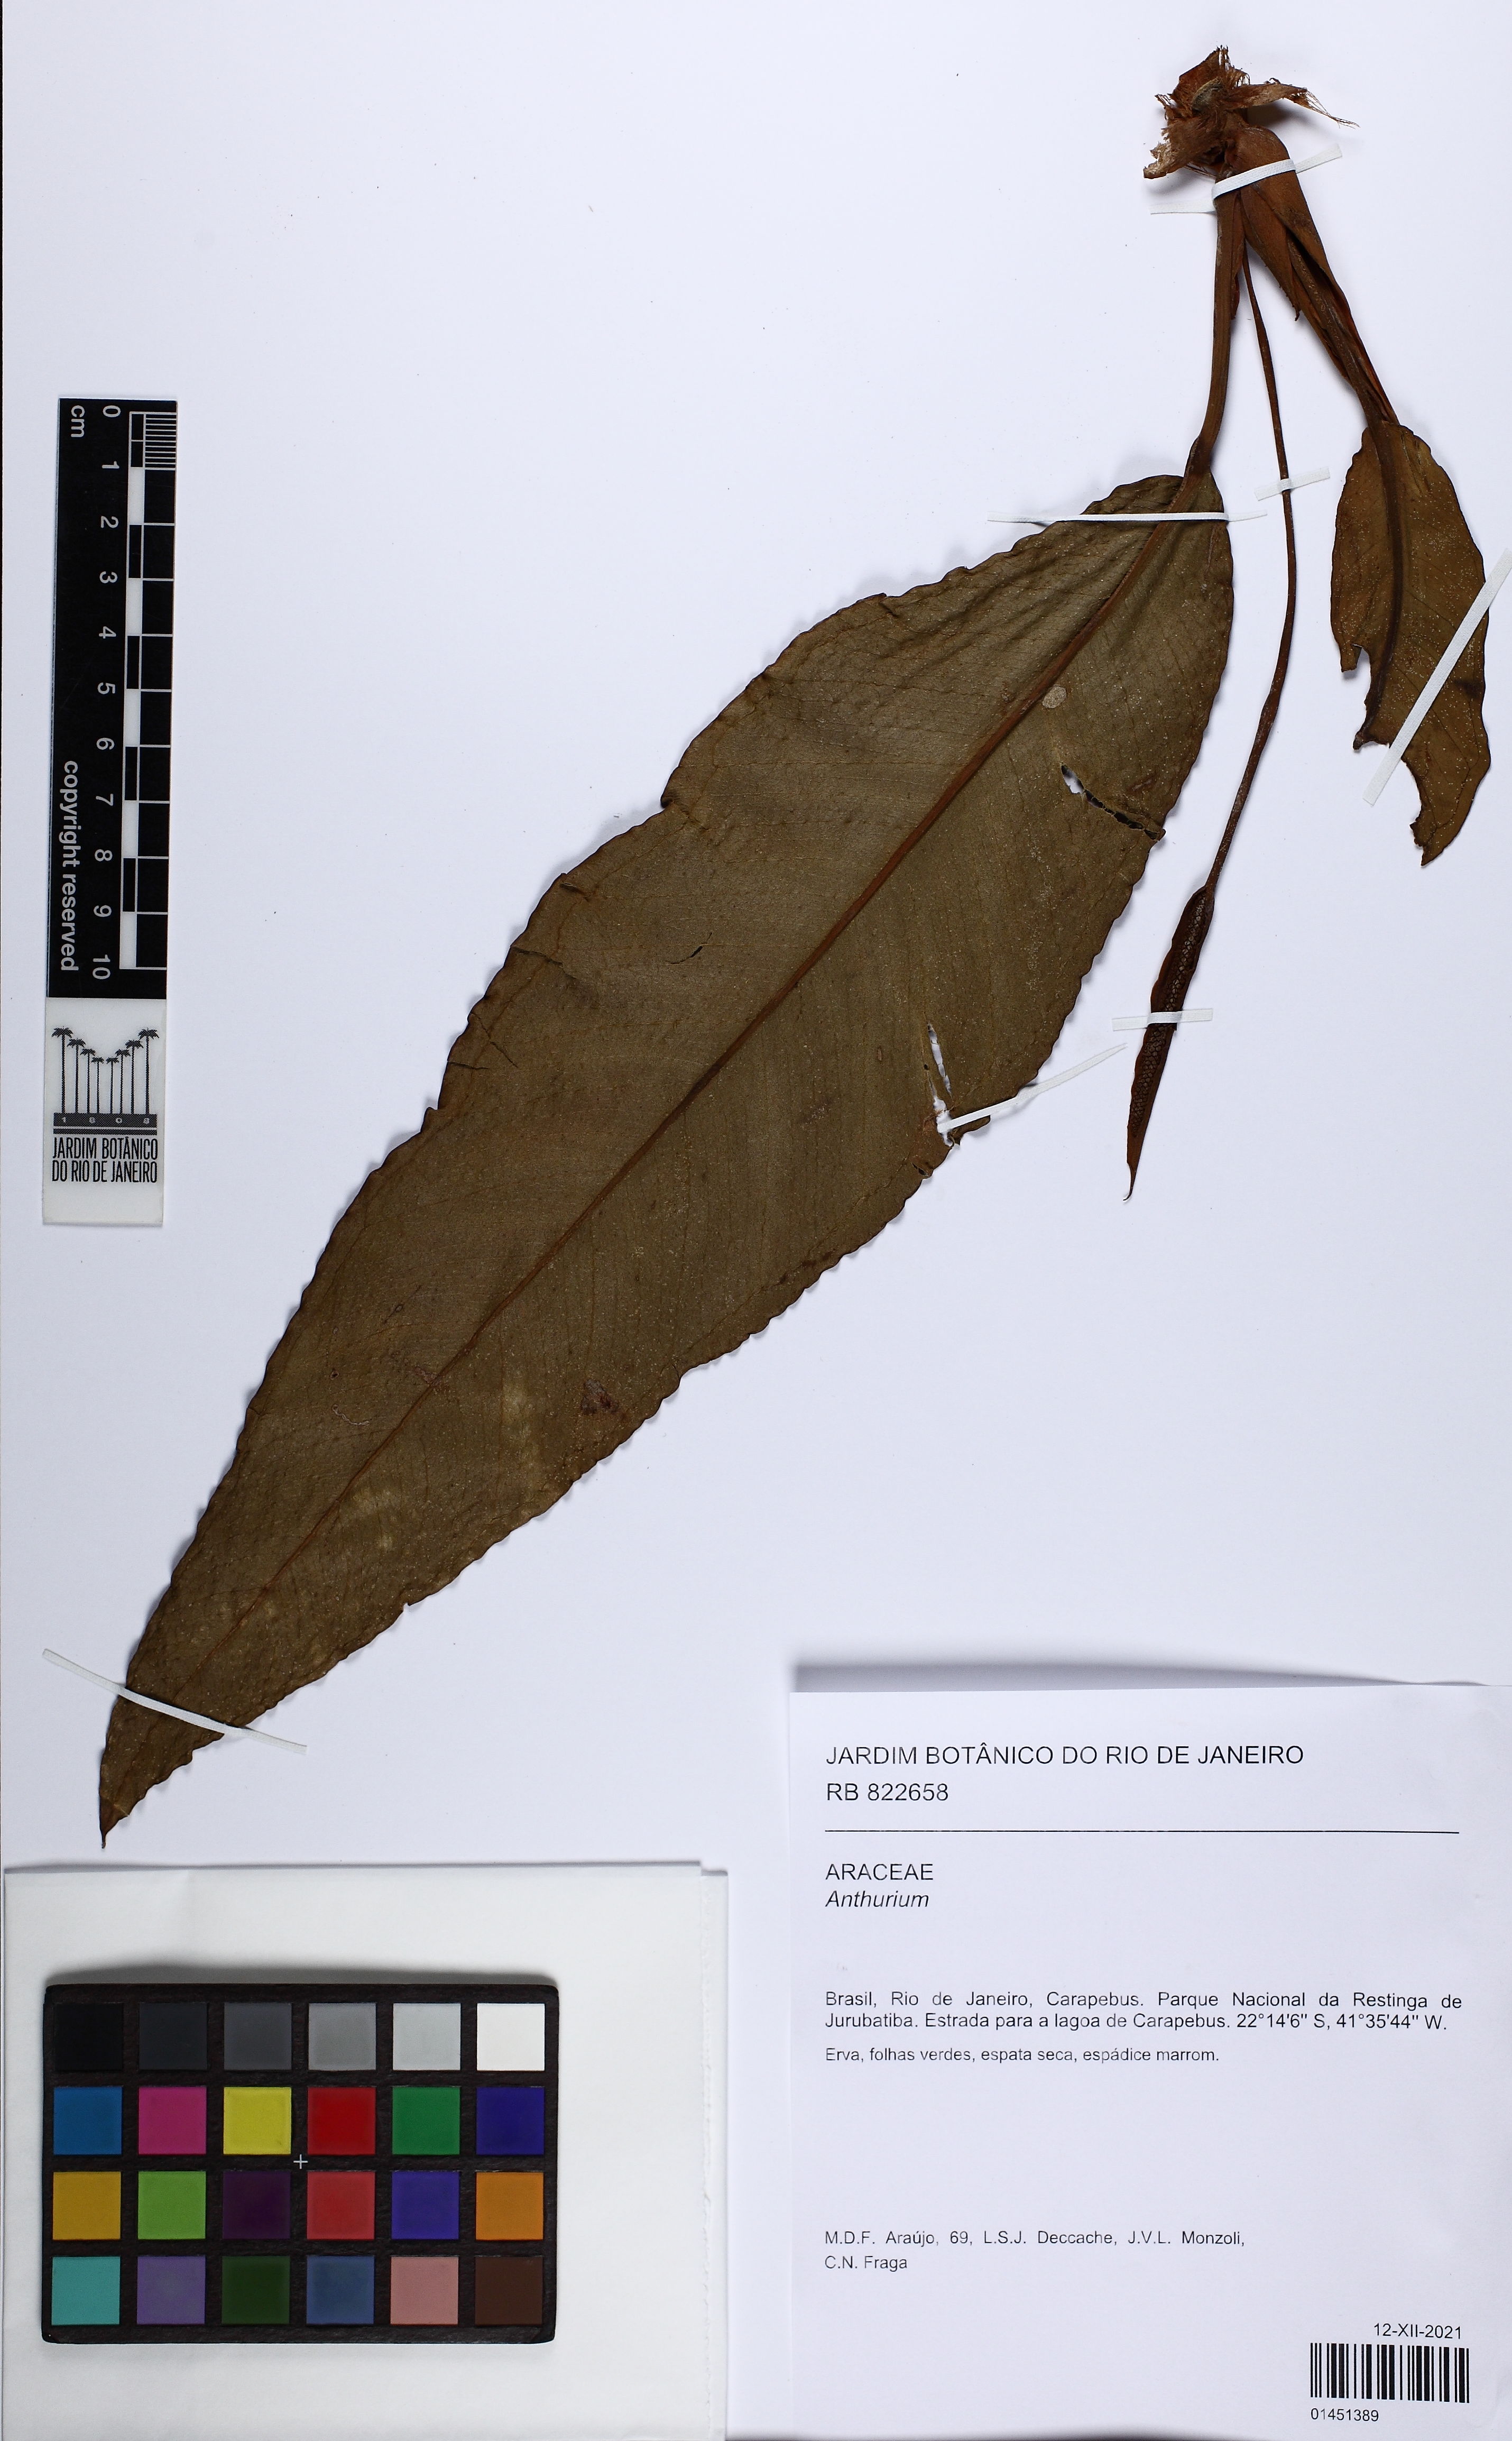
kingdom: Plantae
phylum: Tracheophyta
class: Liliopsida
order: Alismatales
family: Araceae
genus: Anthurium
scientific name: Anthurium
